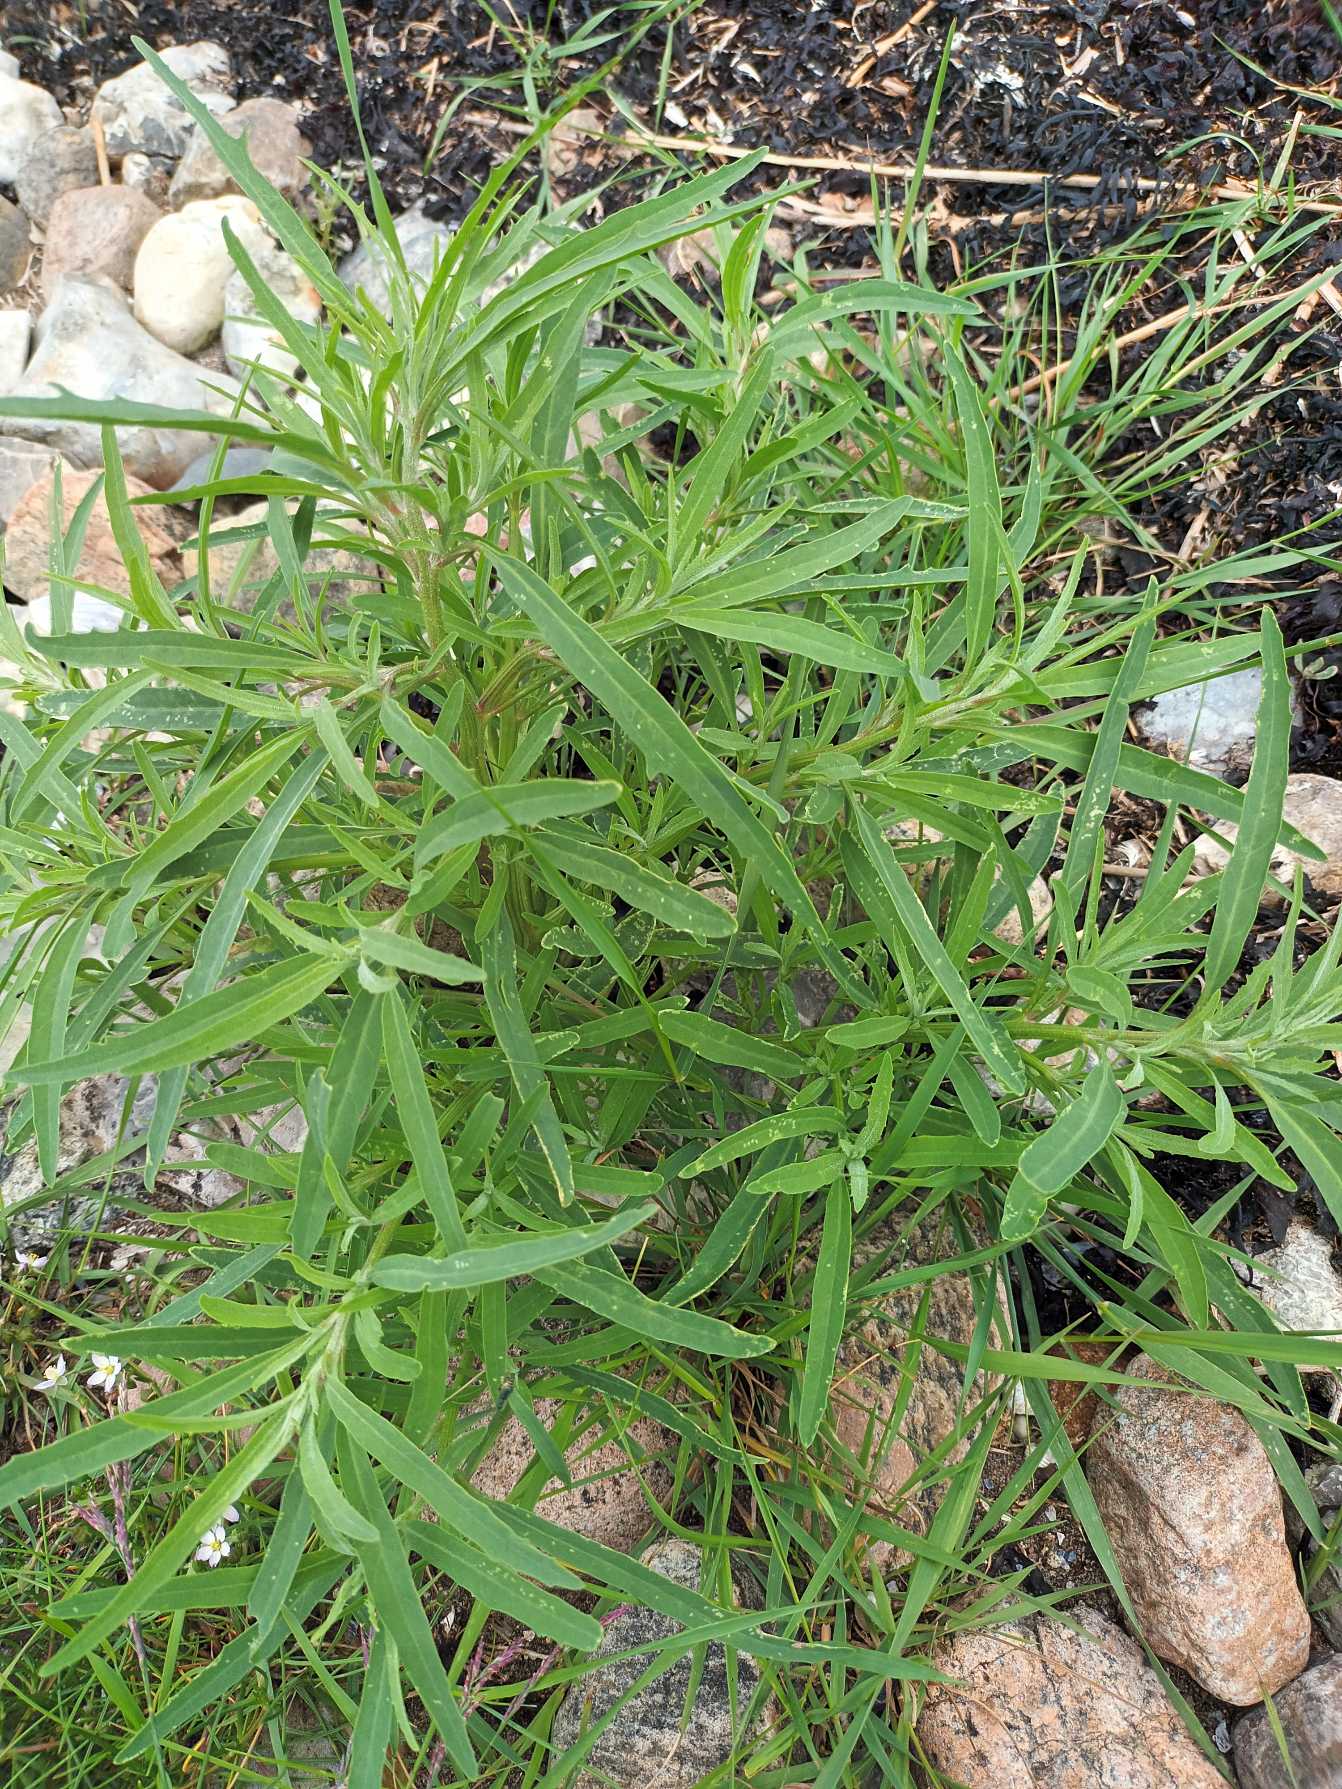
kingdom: Plantae
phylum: Tracheophyta
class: Magnoliopsida
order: Caryophyllales
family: Amaranthaceae
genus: Atriplex
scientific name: Atriplex littoralis
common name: Strand-mælde
